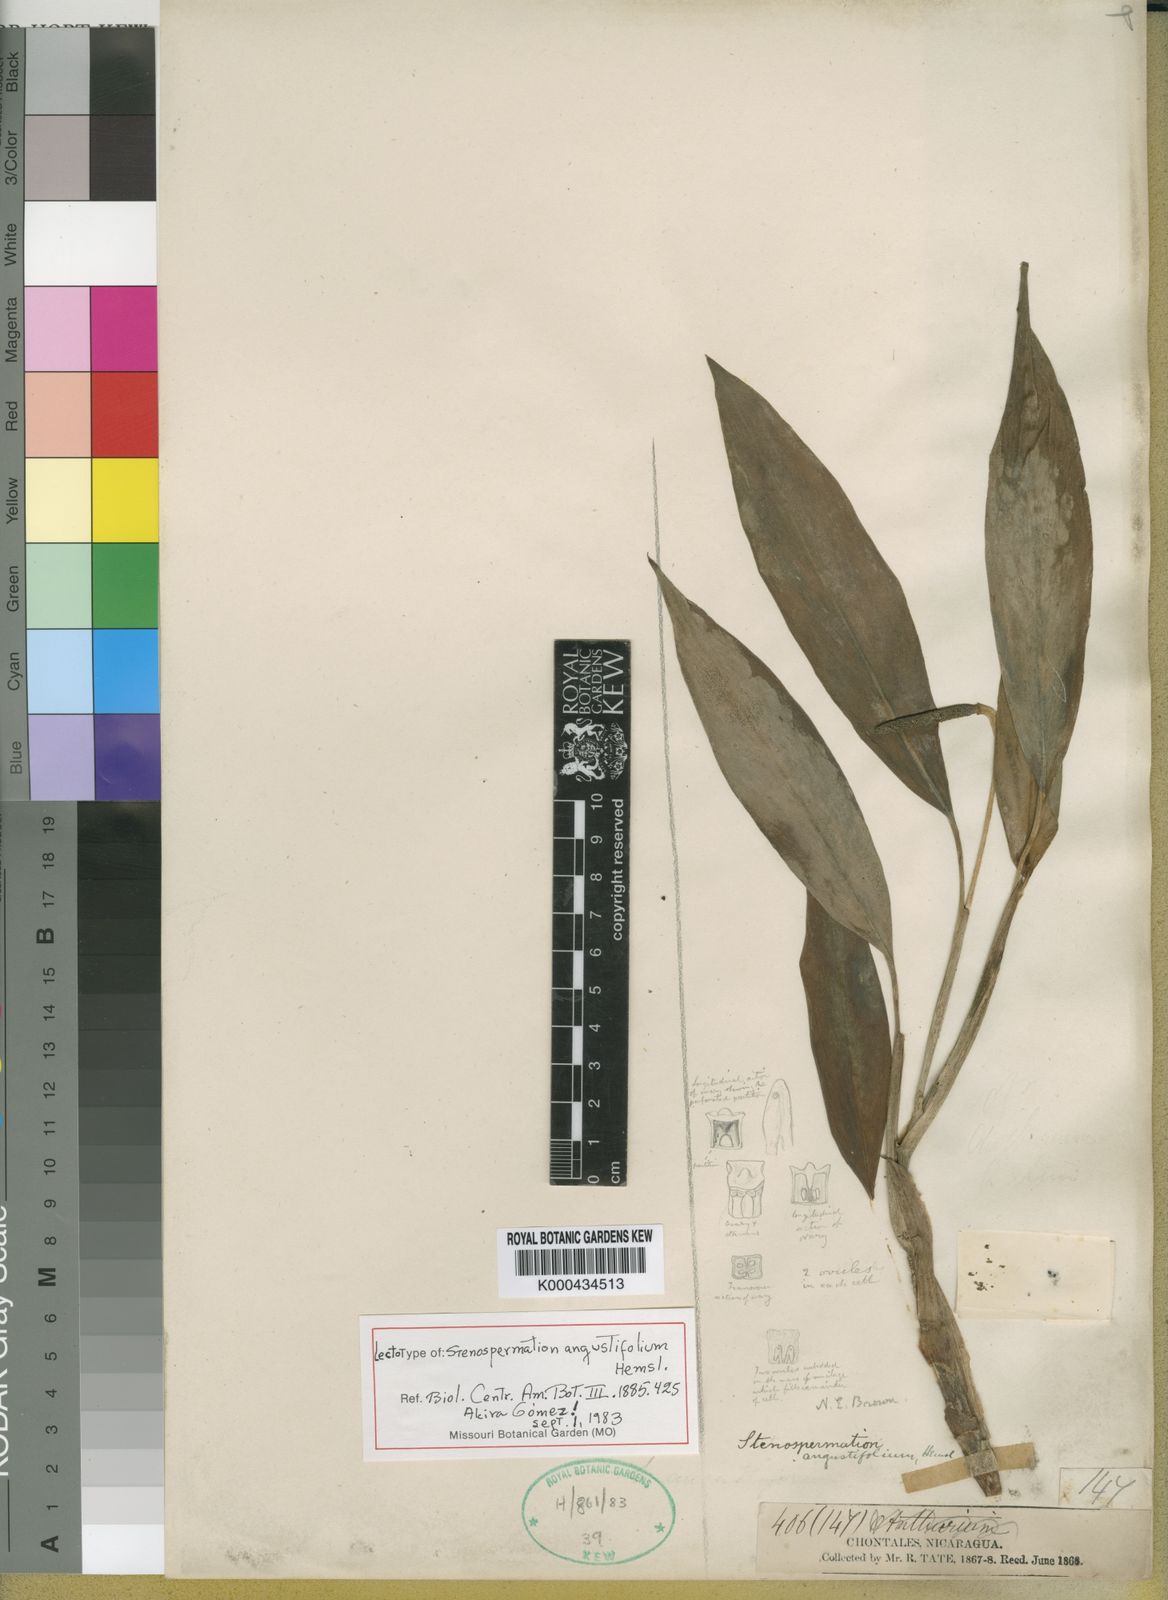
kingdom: Plantae
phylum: Tracheophyta
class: Liliopsida
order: Alismatales
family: Araceae
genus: Stenospermation
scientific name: Stenospermation angustifolium
